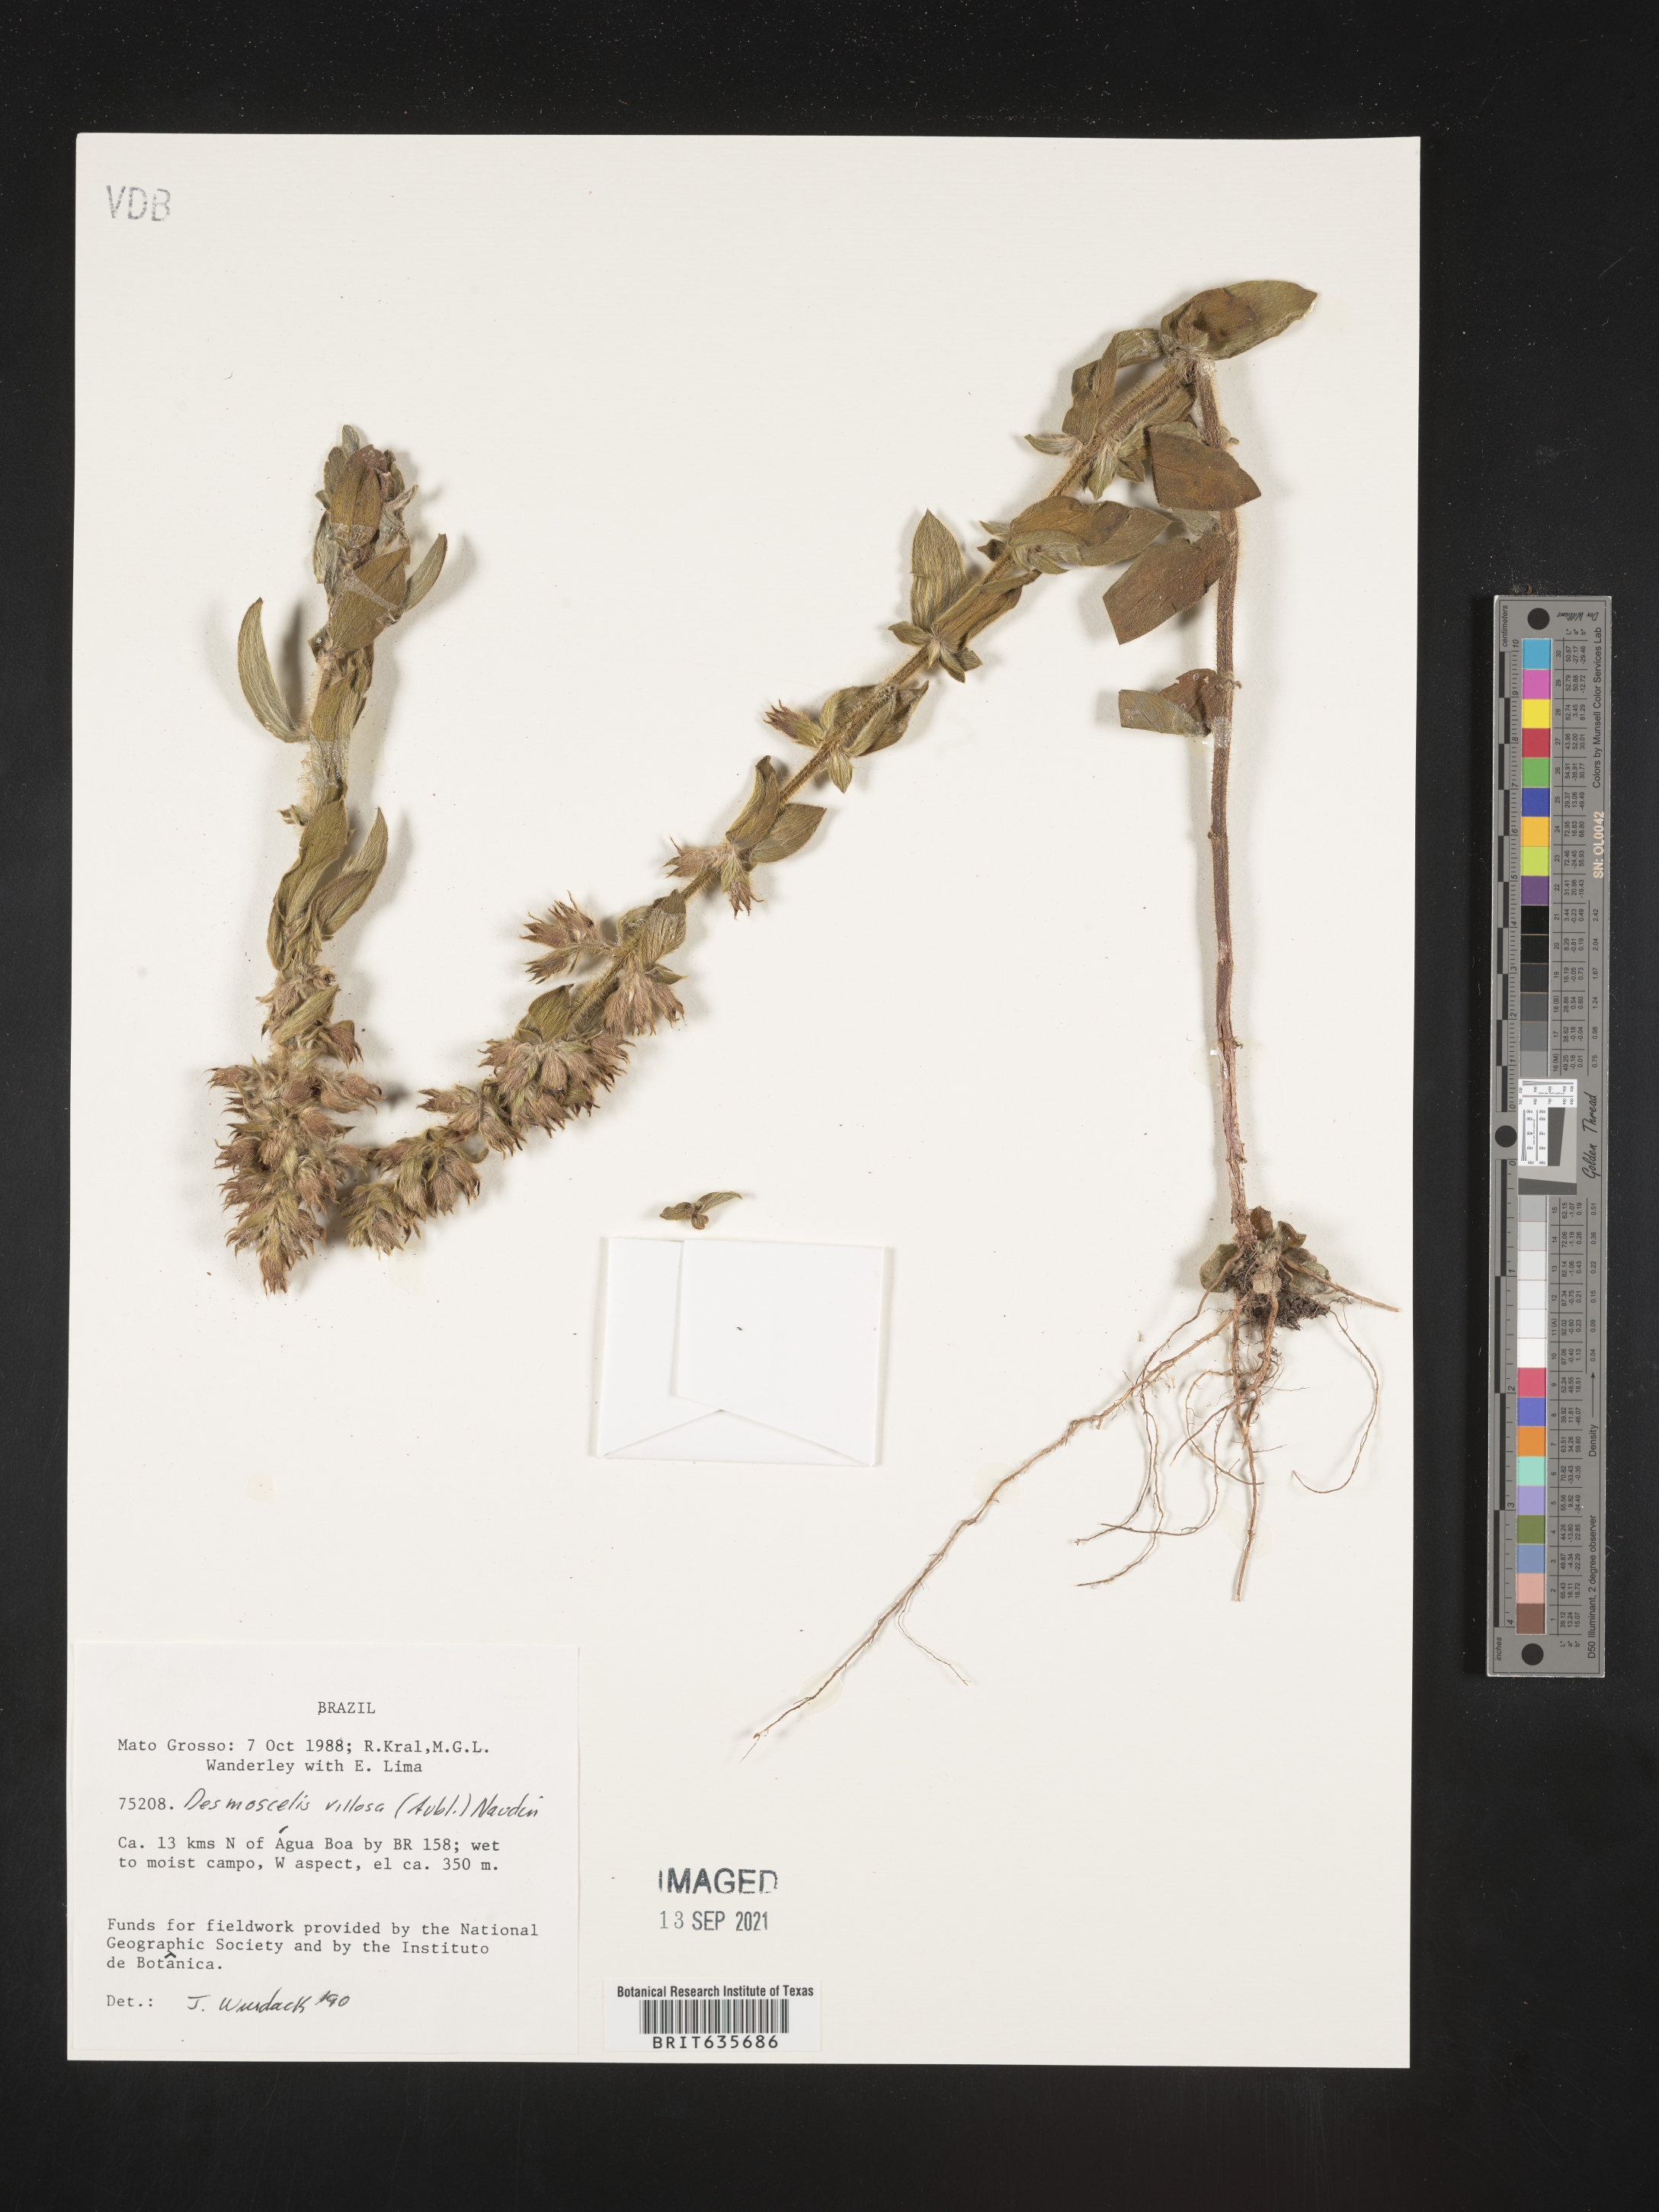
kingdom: Plantae
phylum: Tracheophyta
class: Magnoliopsida
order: Myrtales
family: Melastomataceae
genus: Desmoscelis
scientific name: Desmoscelis
